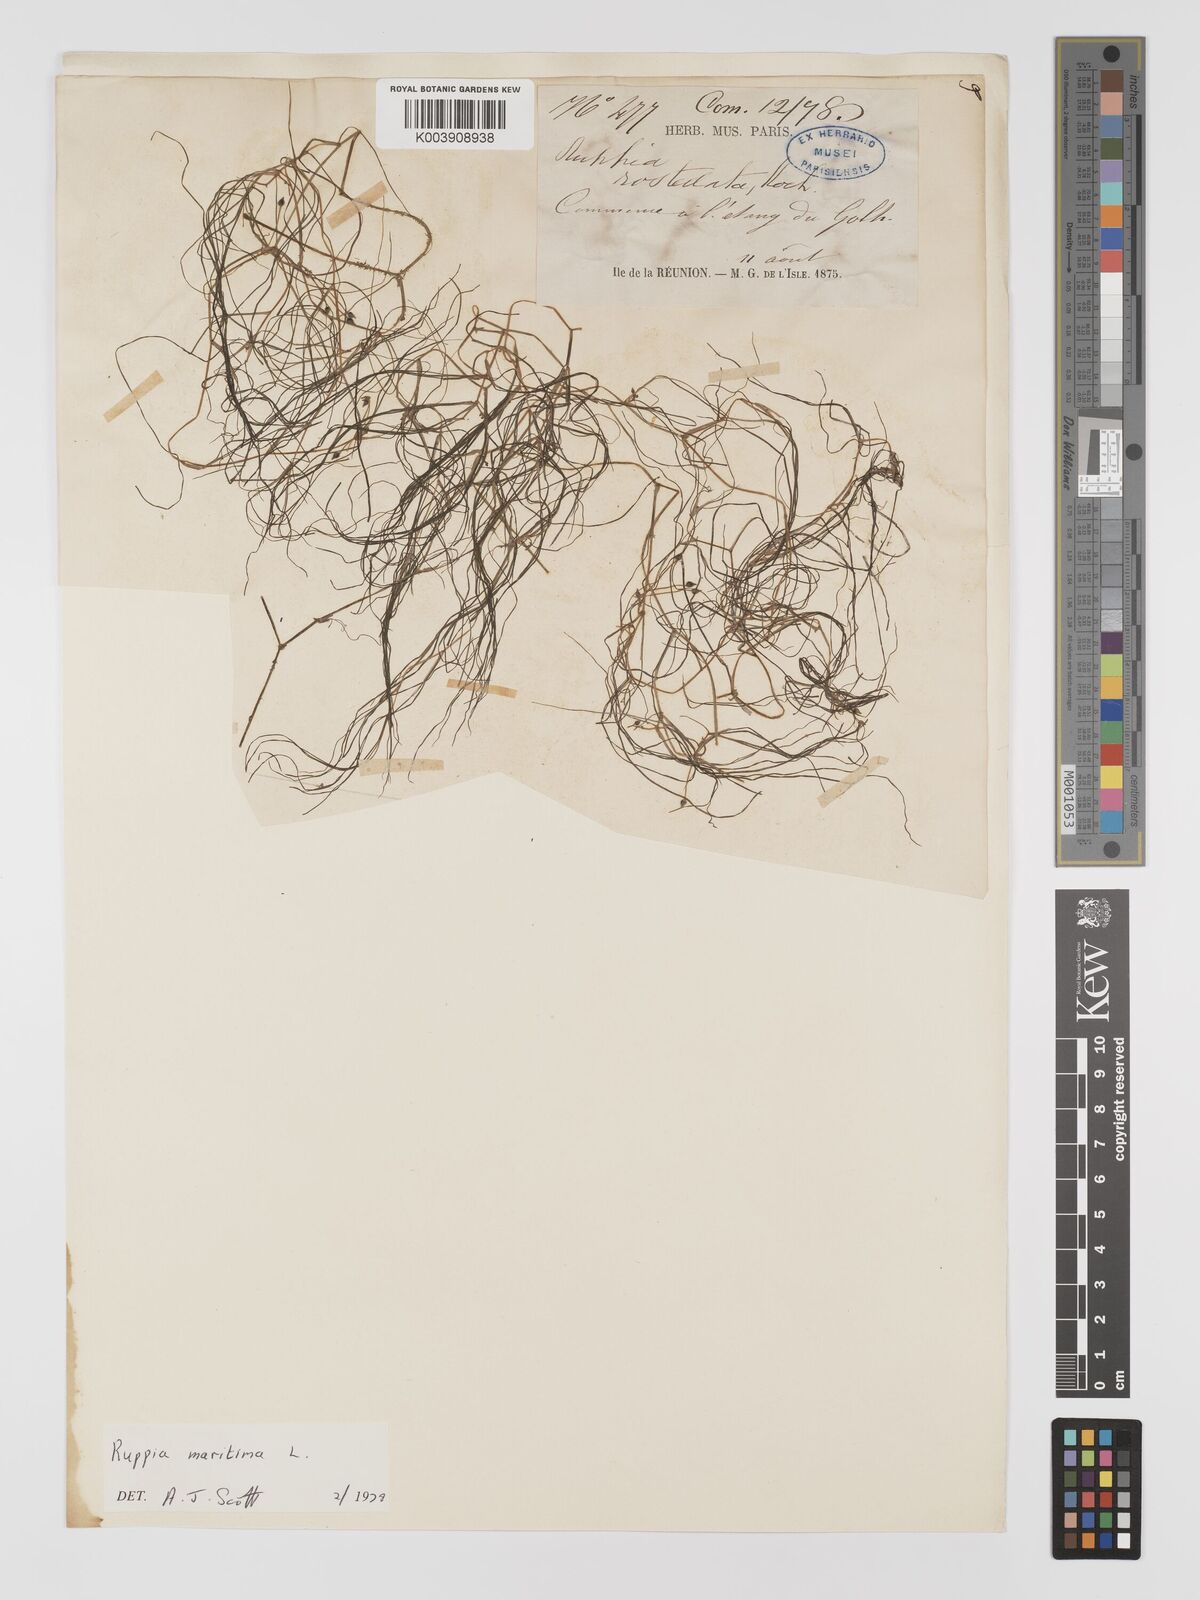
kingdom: Plantae
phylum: Tracheophyta
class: Liliopsida
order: Alismatales
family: Ruppiaceae
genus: Ruppia
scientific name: Ruppia maritima
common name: Beaked tasselweed
